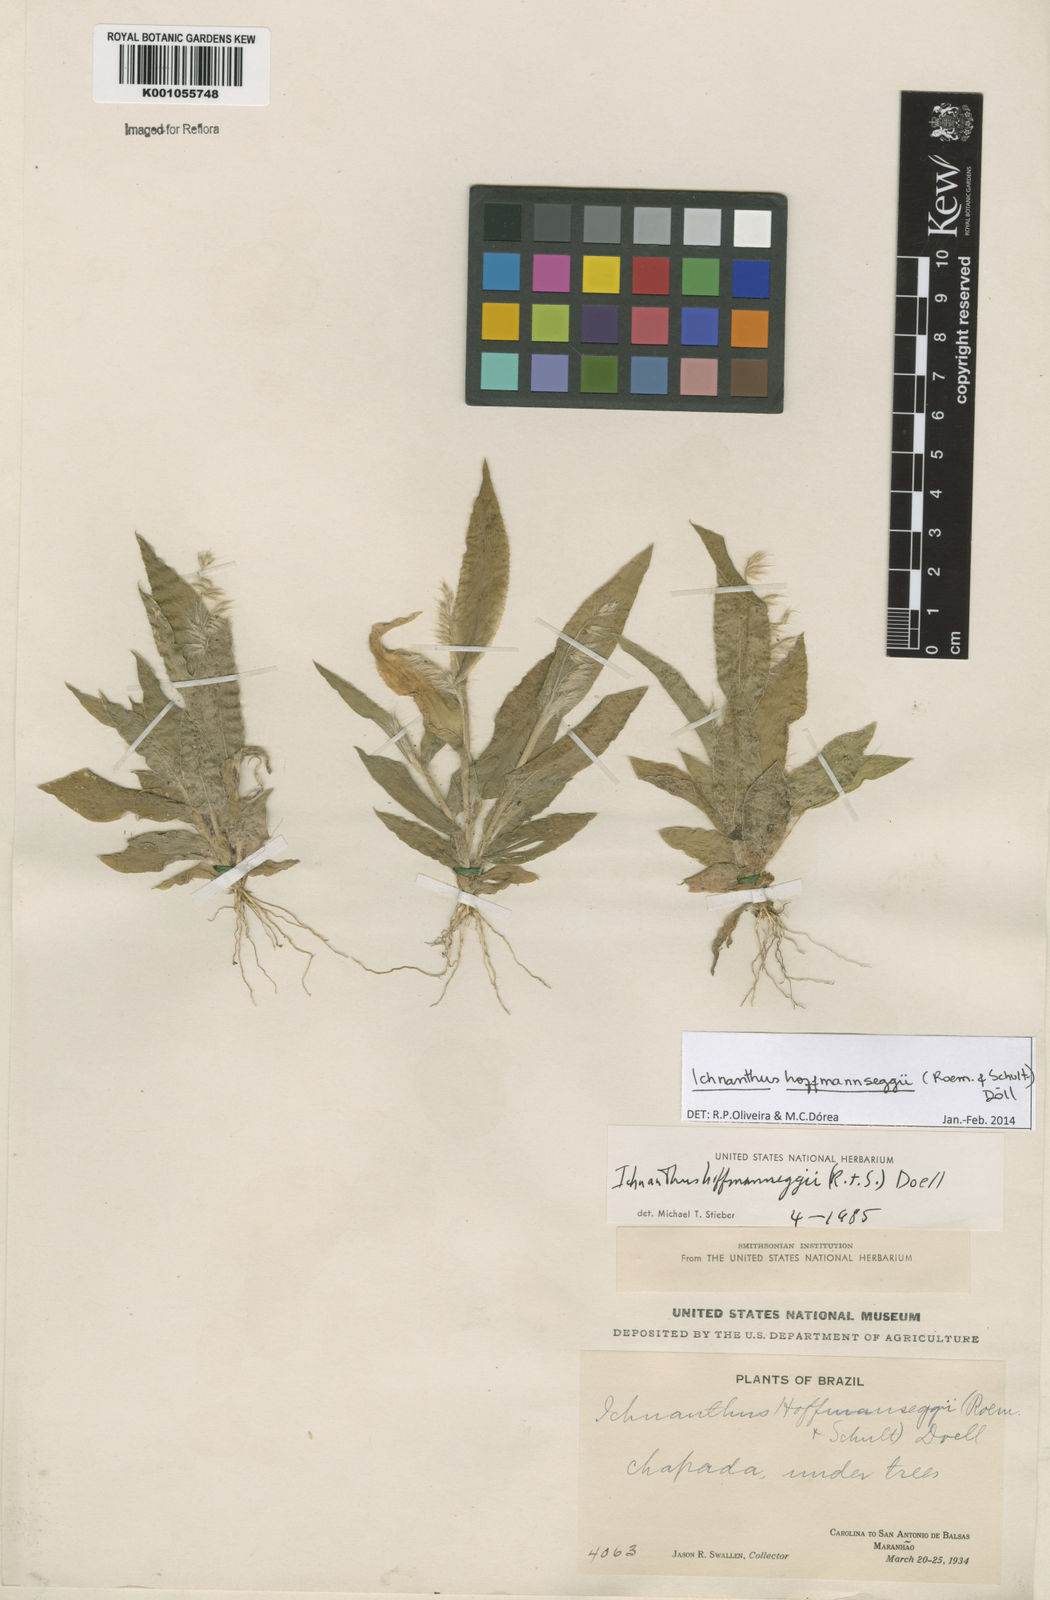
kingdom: Plantae
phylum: Tracheophyta
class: Liliopsida
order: Poales
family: Poaceae
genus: Ichnanthus
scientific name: Ichnanthus
